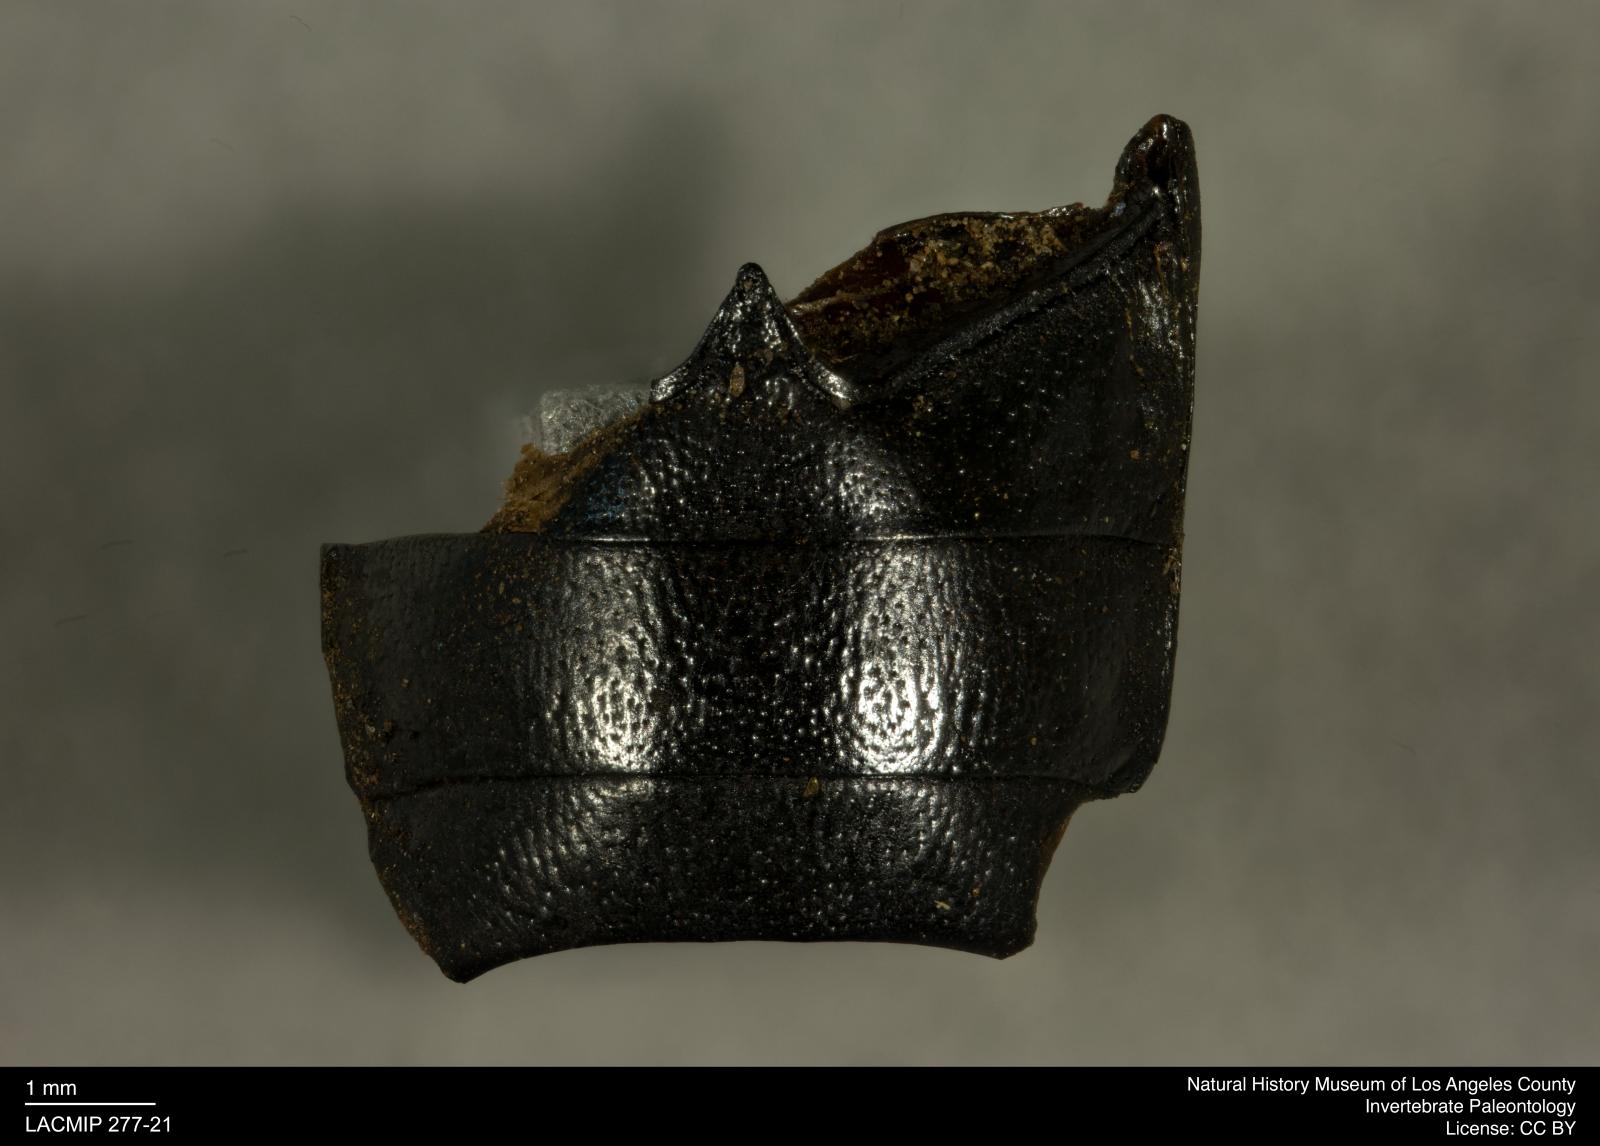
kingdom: Animalia
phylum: Arthropoda
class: Insecta
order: Coleoptera
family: Tenebrionidae
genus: Coniontis
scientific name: Coniontis abdominalis
